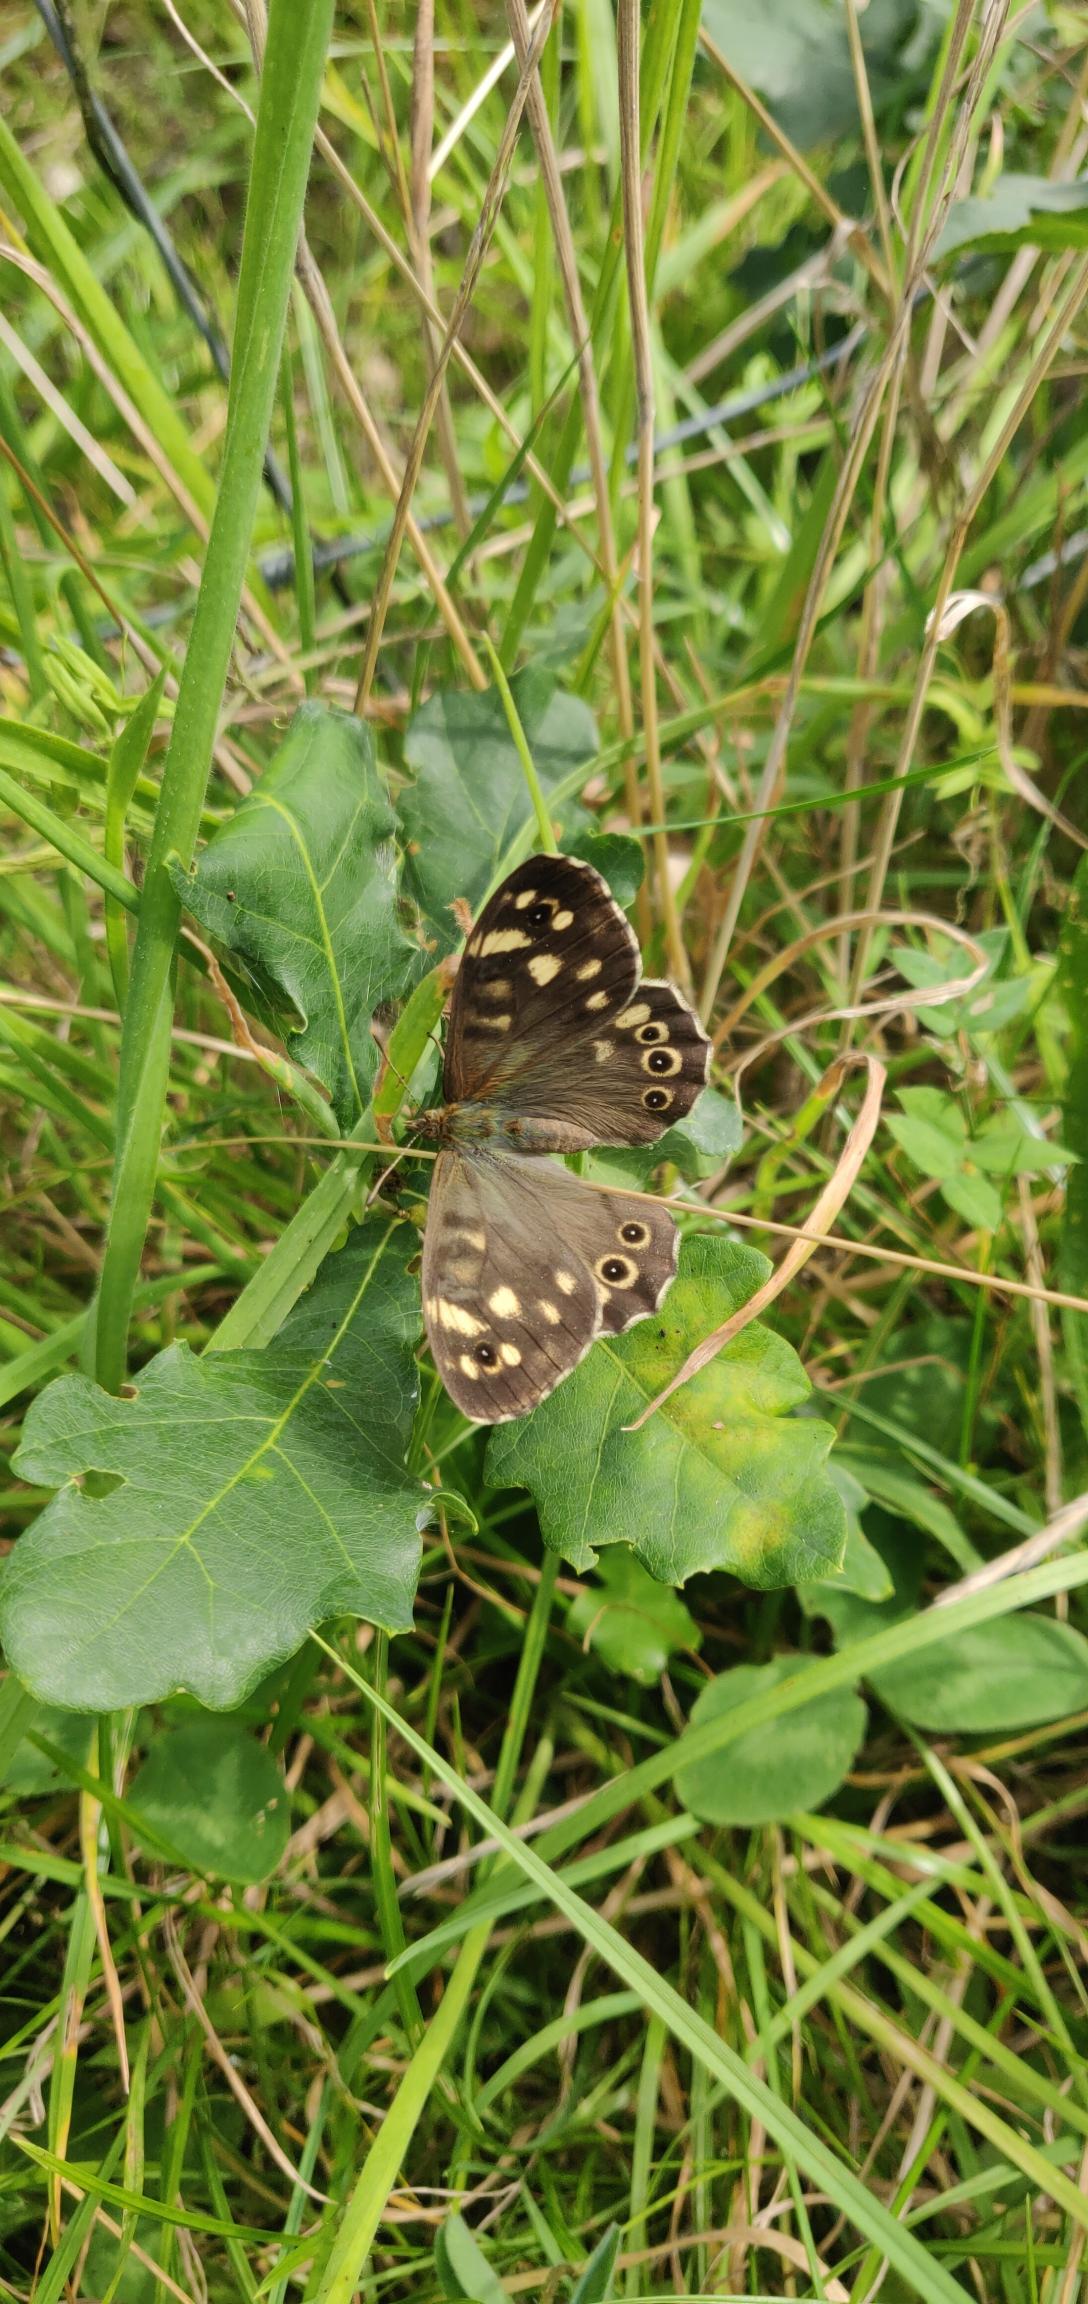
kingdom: Animalia
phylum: Arthropoda
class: Insecta
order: Lepidoptera
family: Nymphalidae
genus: Pararge
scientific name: Pararge aegeria
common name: Skovrandøje
